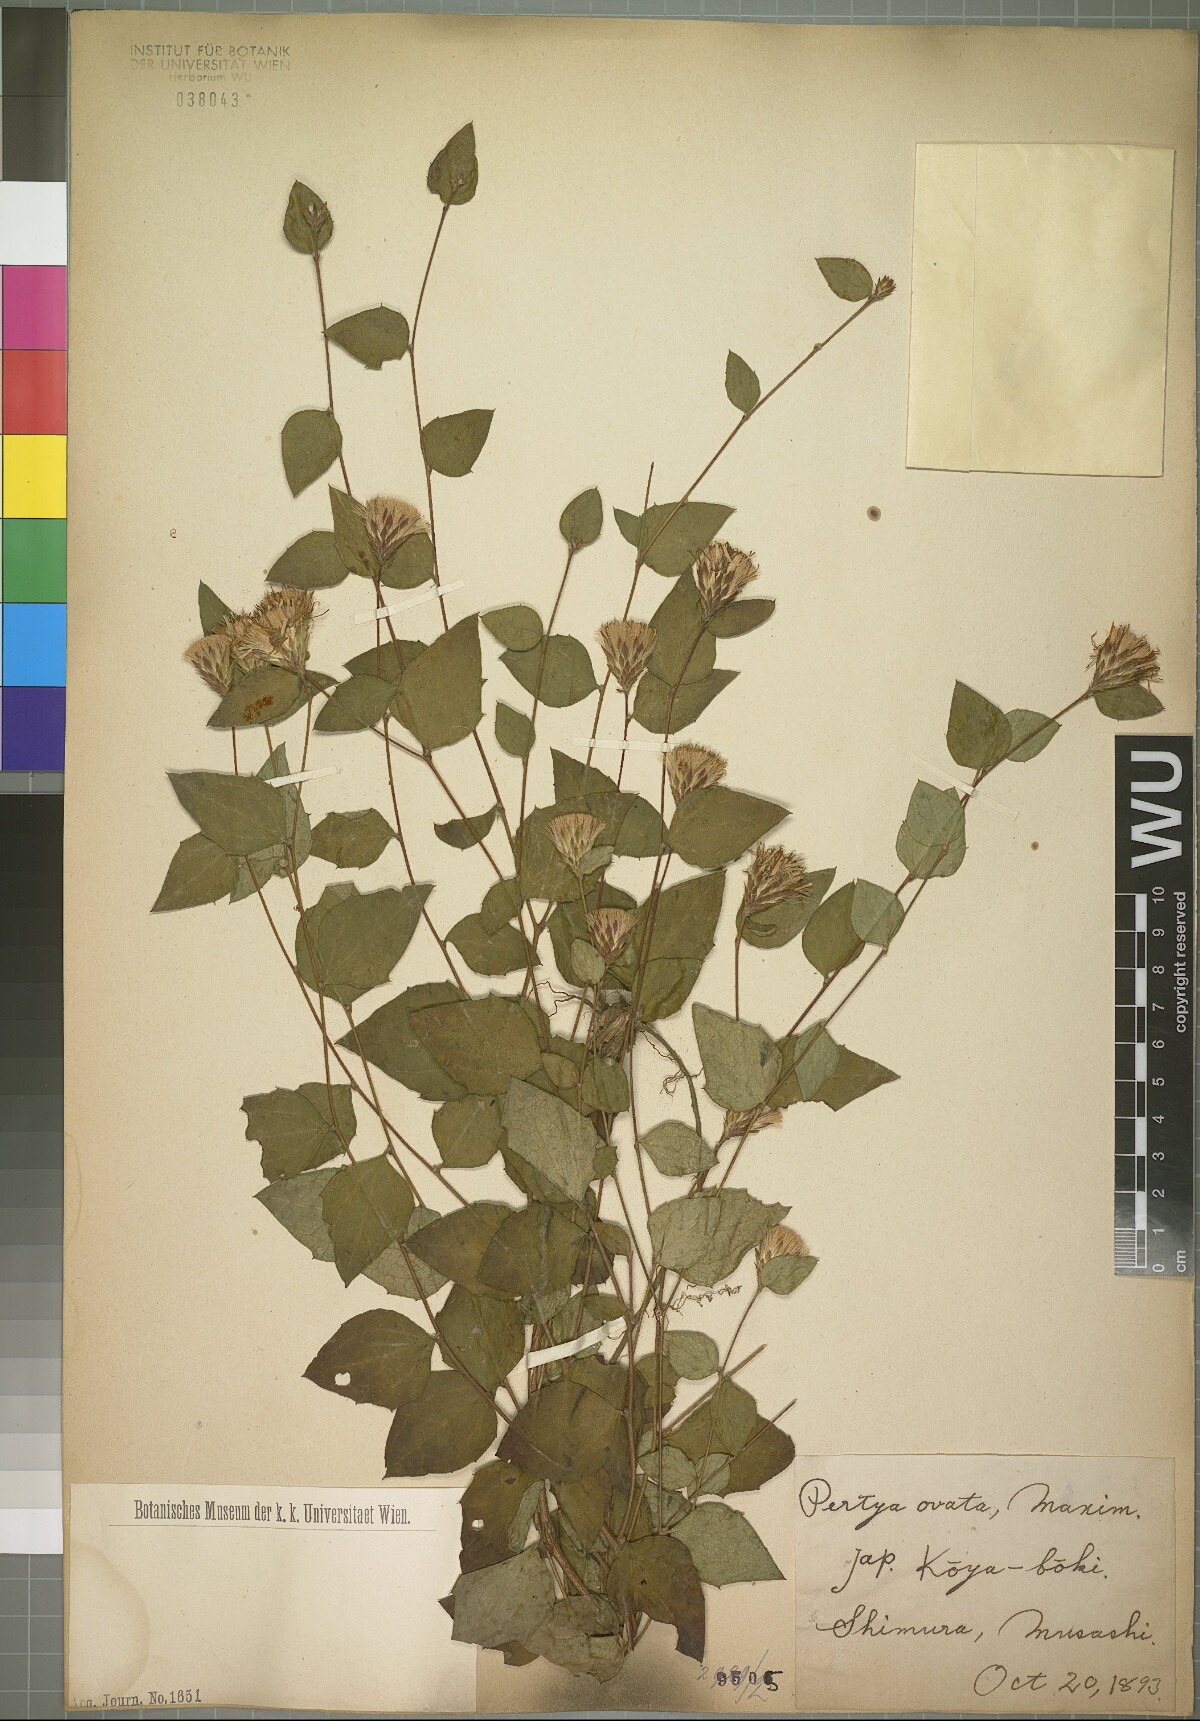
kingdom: Plantae
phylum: Tracheophyta
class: Magnoliopsida
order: Asterales
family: Asteraceae
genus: Pertya
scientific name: Pertya scandens
